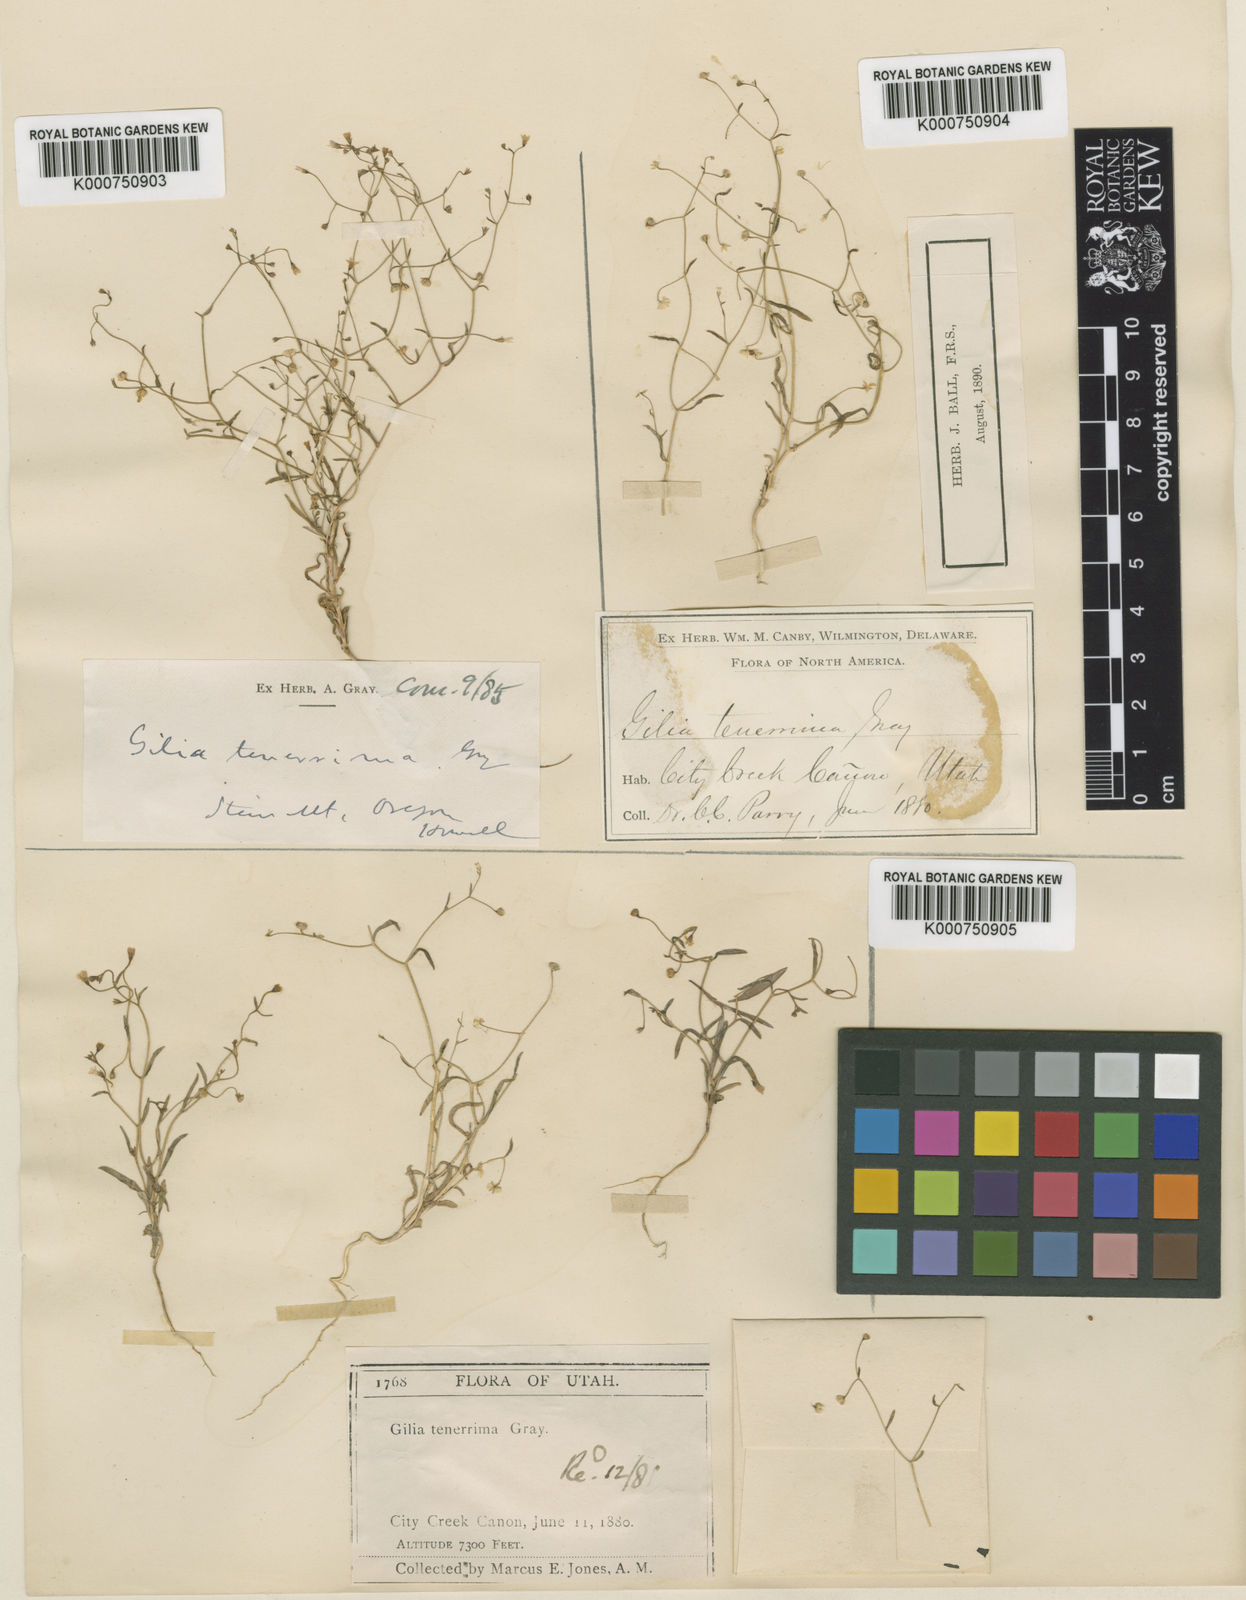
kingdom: Plantae
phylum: Tracheophyta
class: Magnoliopsida
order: Ericales
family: Polemoniaceae
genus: Lathrocasis
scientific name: Lathrocasis tenerrima
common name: Delicate gilia
